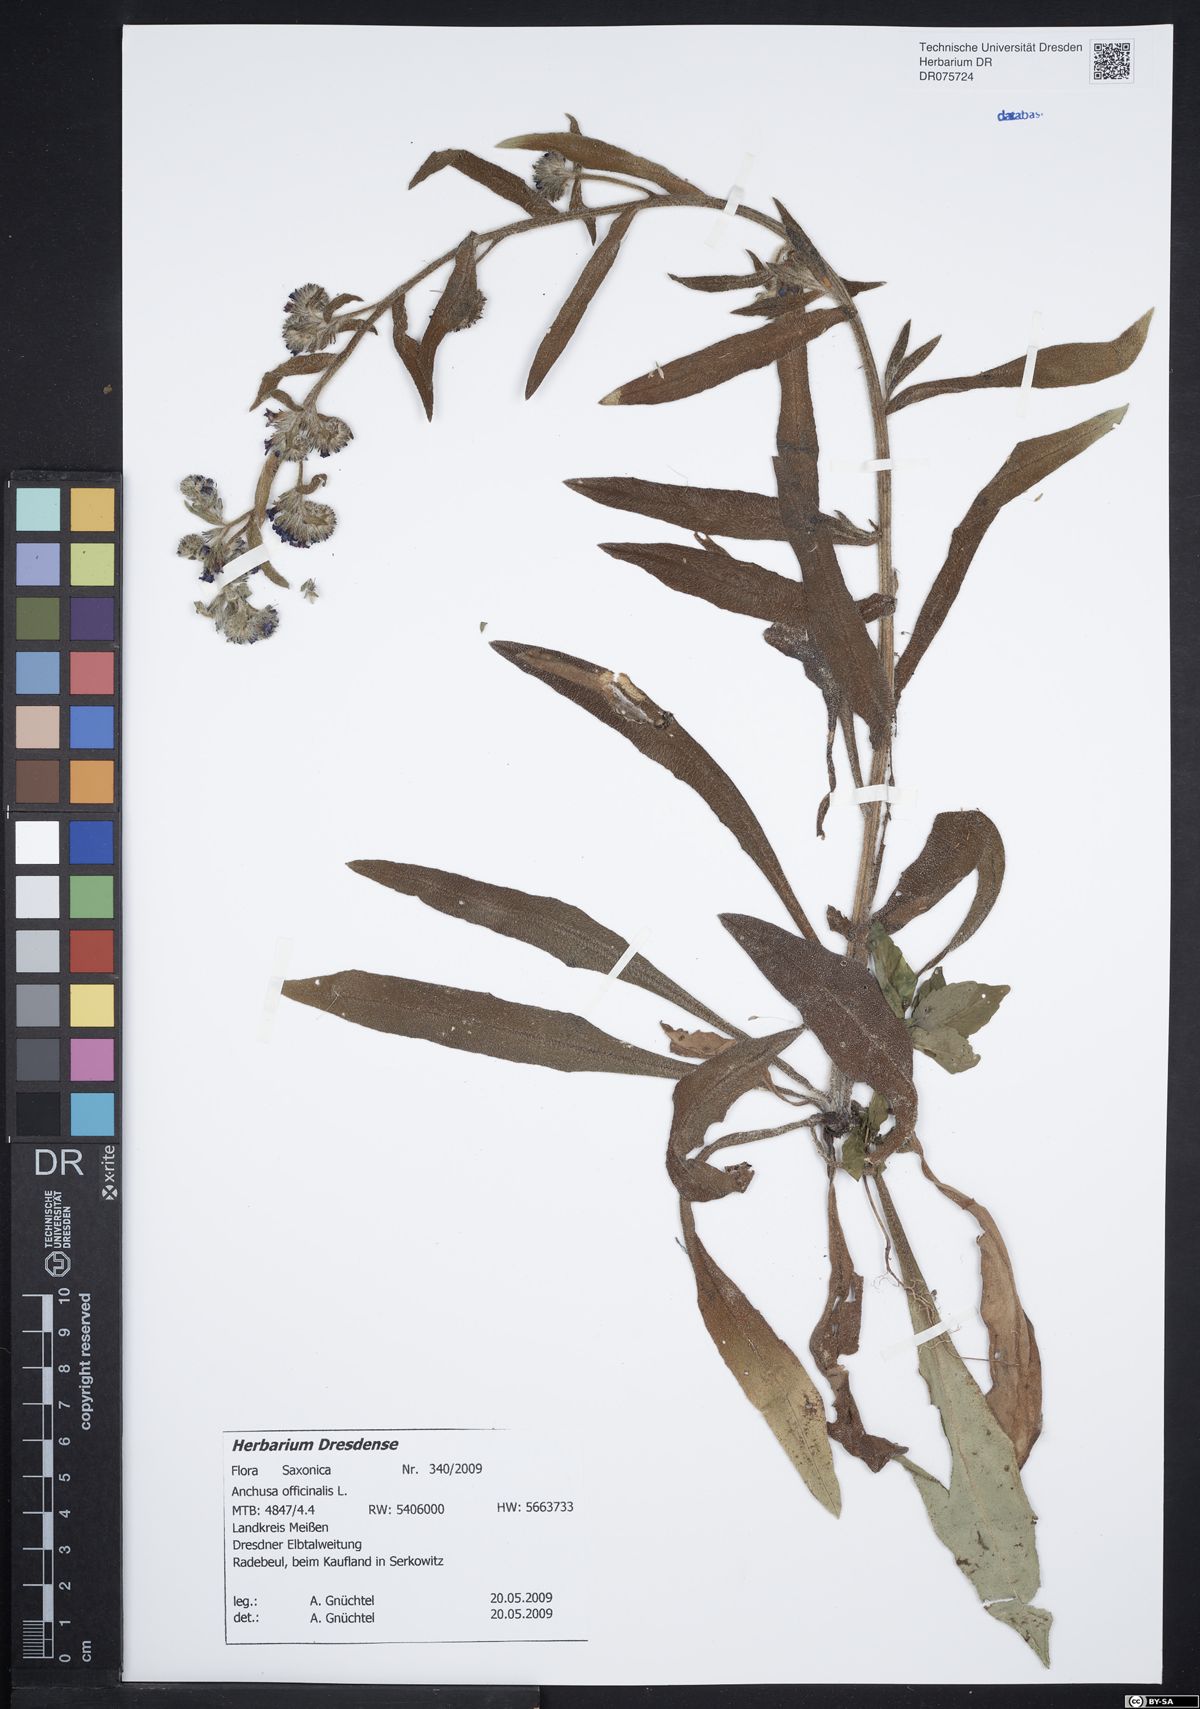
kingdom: Plantae
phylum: Tracheophyta
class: Magnoliopsida
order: Boraginales
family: Boraginaceae
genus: Anchusa
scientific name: Anchusa officinalis
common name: Alkanet
